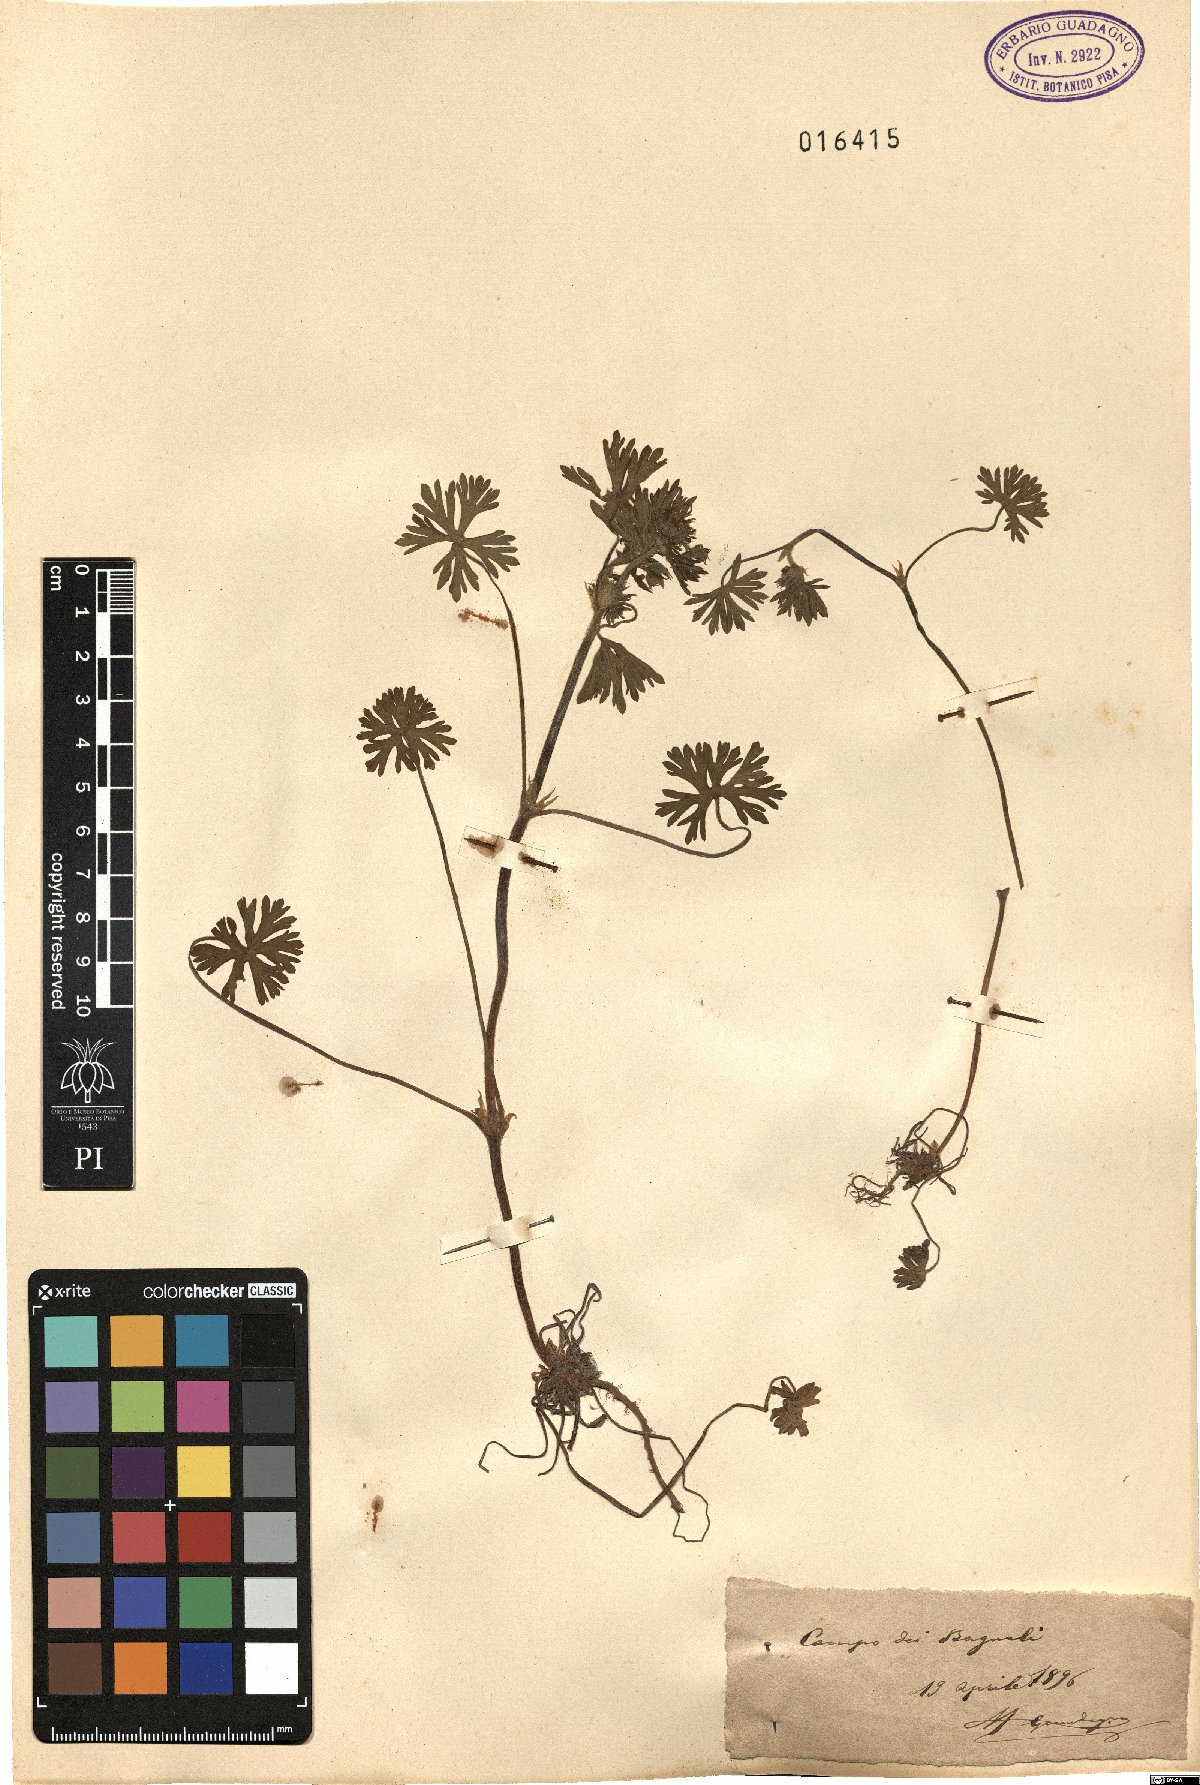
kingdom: Plantae
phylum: Tracheophyta
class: Magnoliopsida
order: Geraniales
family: Geraniaceae
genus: Geranium
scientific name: Geranium
